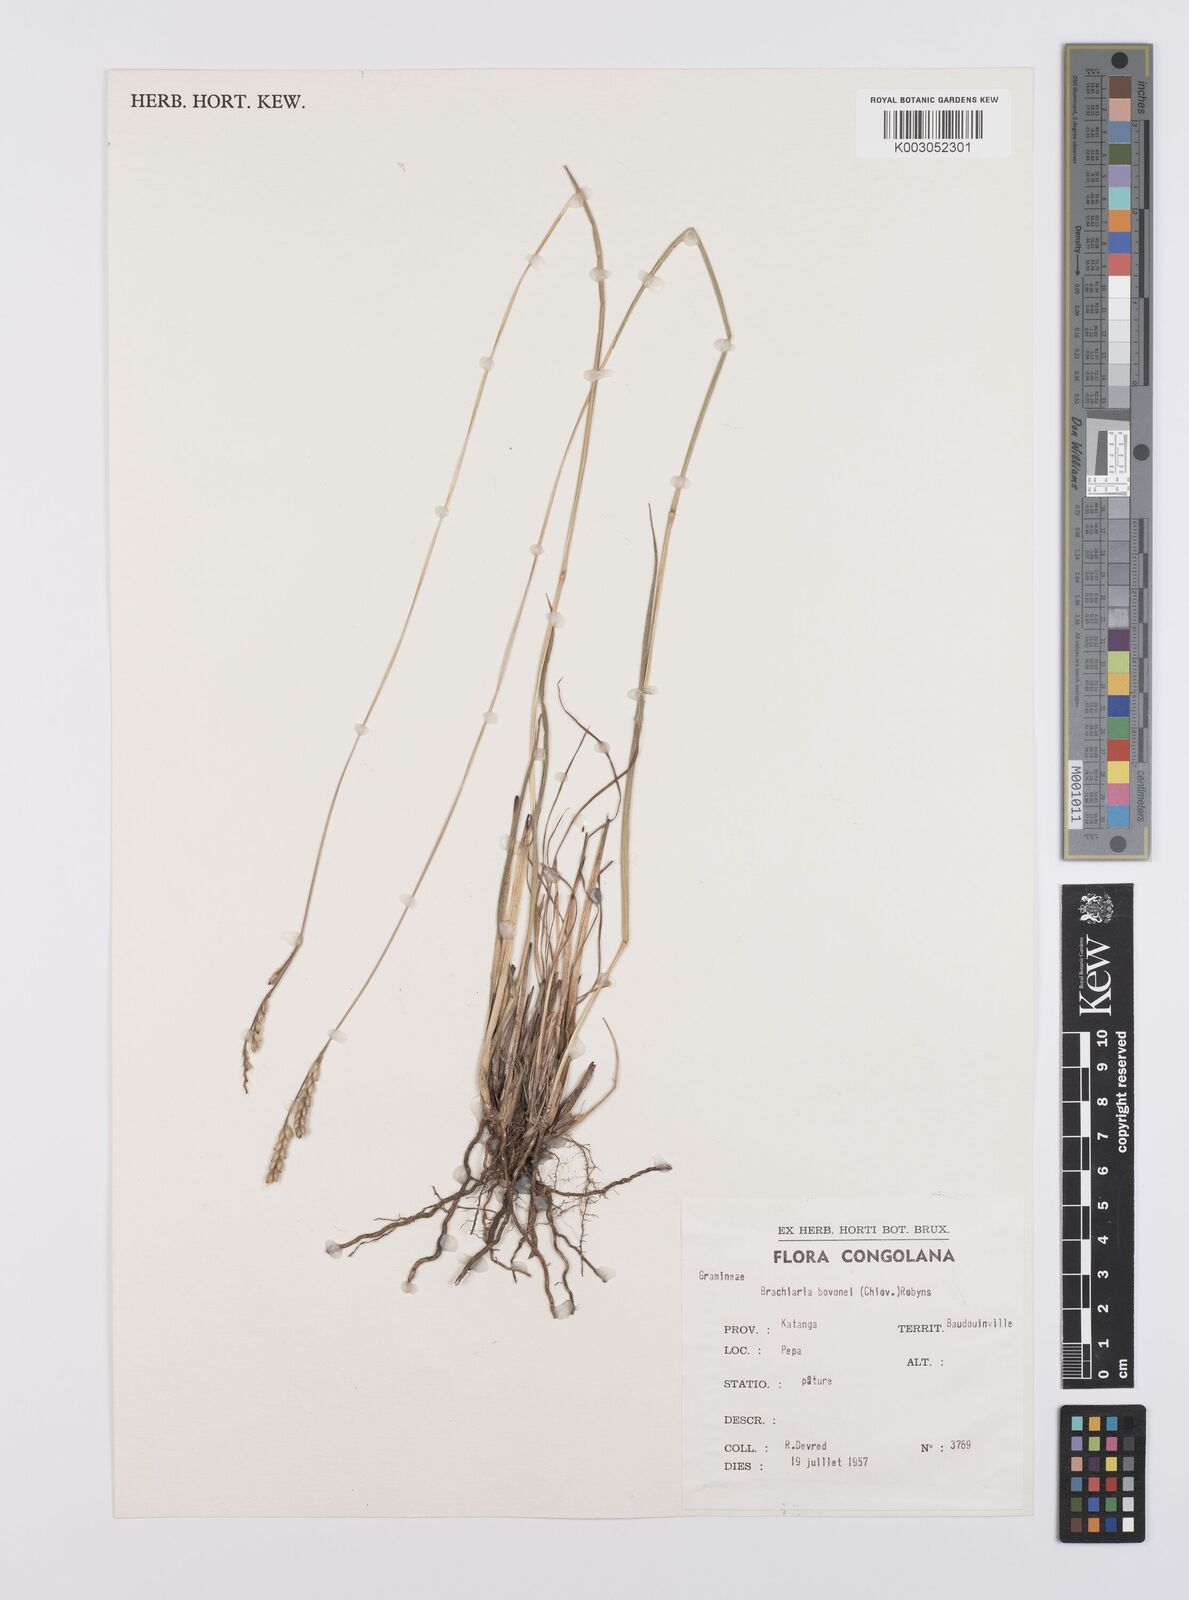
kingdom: Plantae
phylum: Tracheophyta
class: Liliopsida
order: Poales
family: Poaceae
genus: Urochloa
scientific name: Urochloa bovonei
